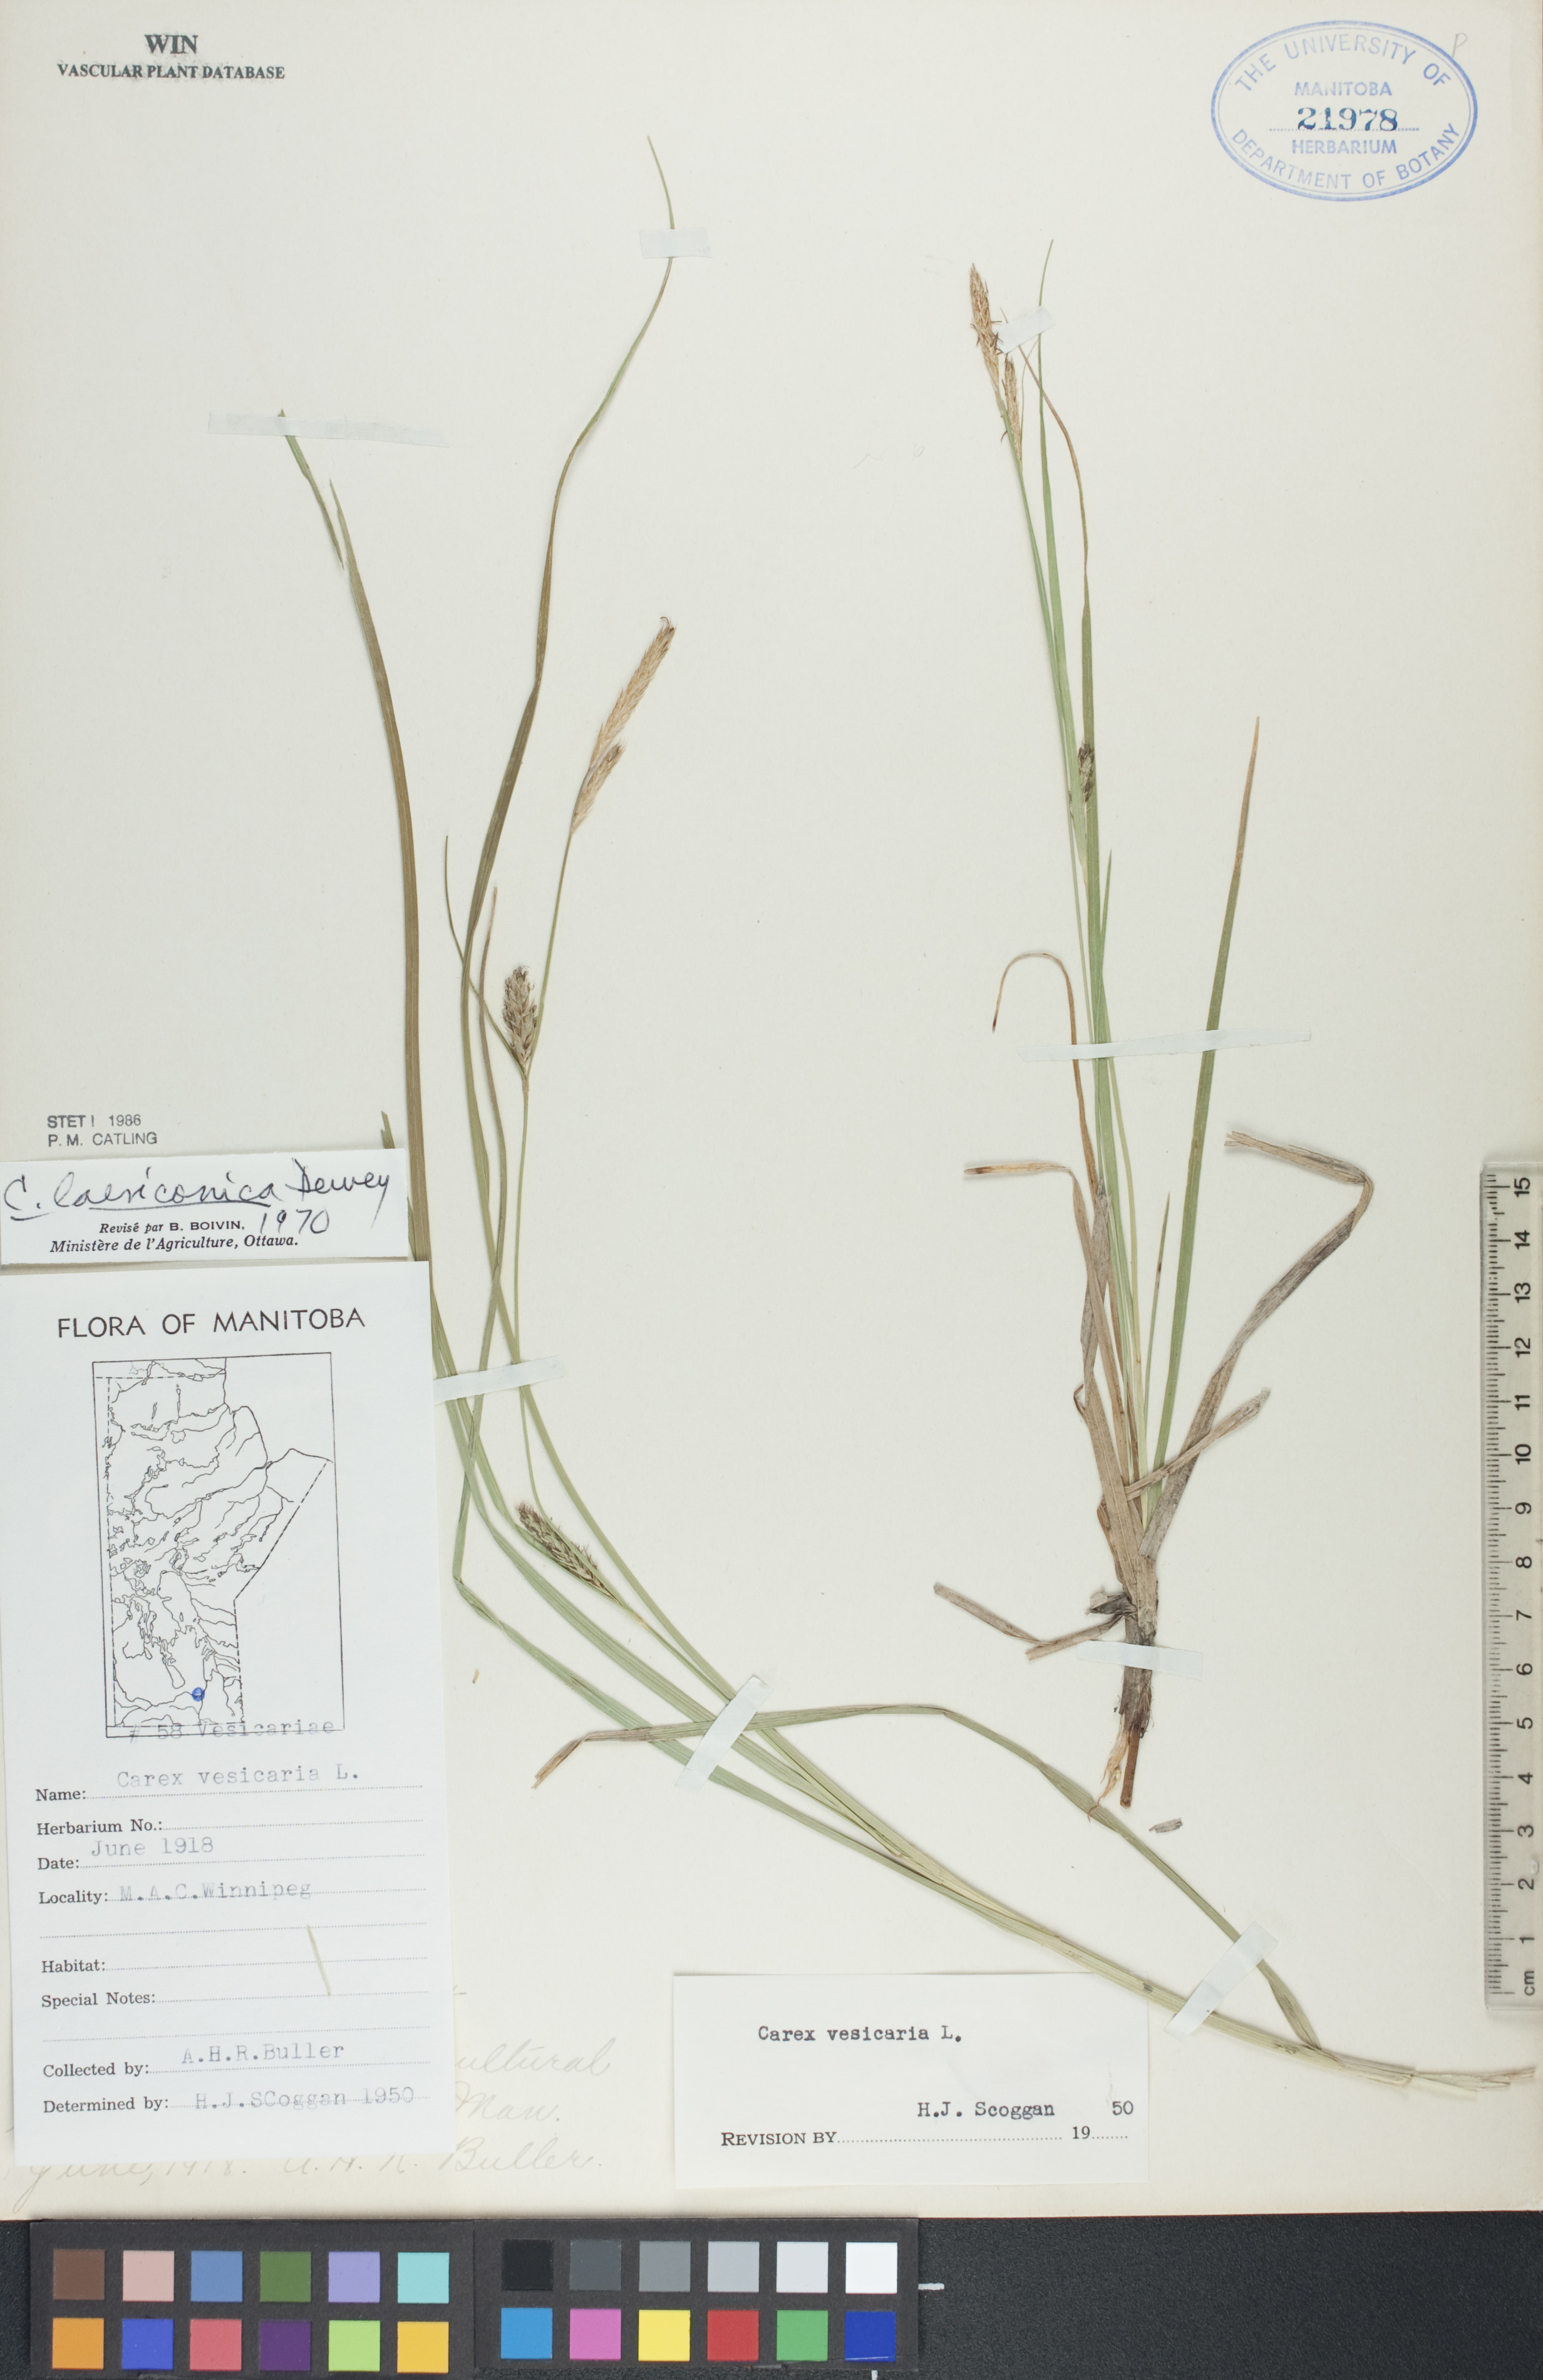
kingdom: Plantae
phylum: Tracheophyta
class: Liliopsida
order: Poales
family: Cyperaceae
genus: Carex
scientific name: Carex laeviconica
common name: Plains slough sedge
